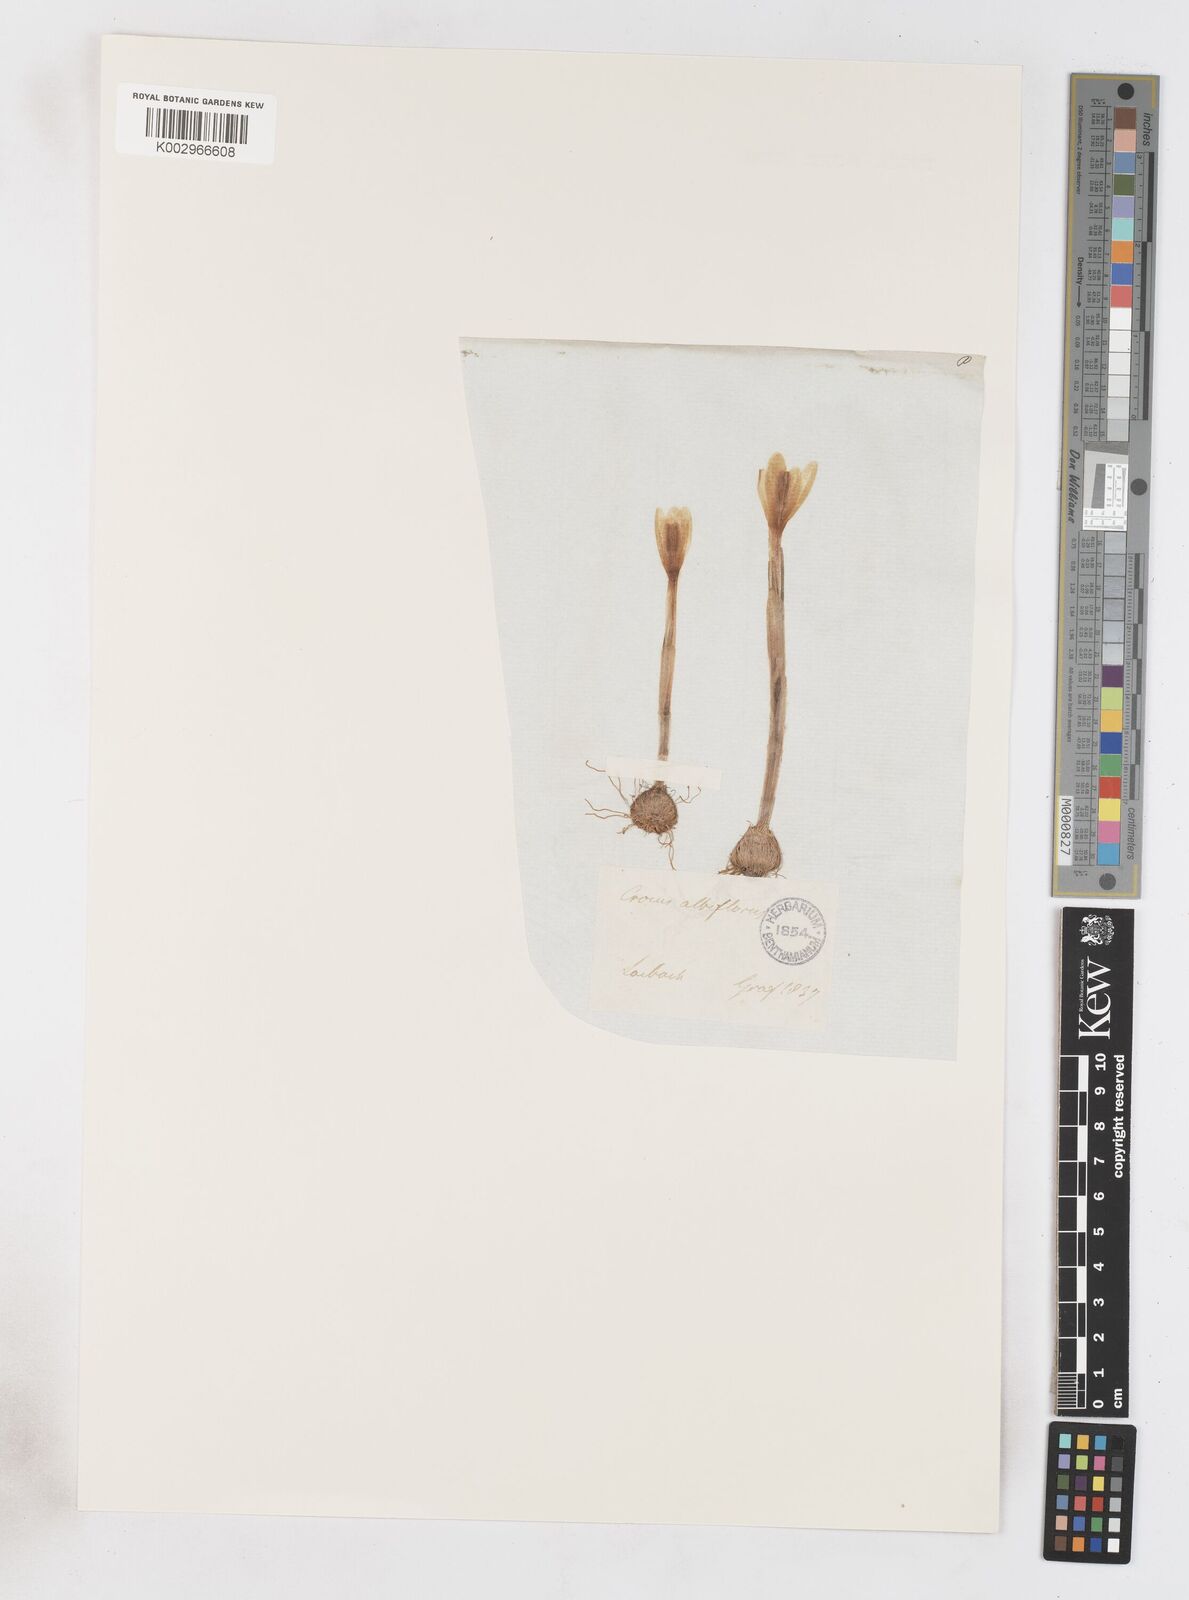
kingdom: Plantae
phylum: Tracheophyta
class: Liliopsida
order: Asparagales
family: Iridaceae
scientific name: Iridaceae
